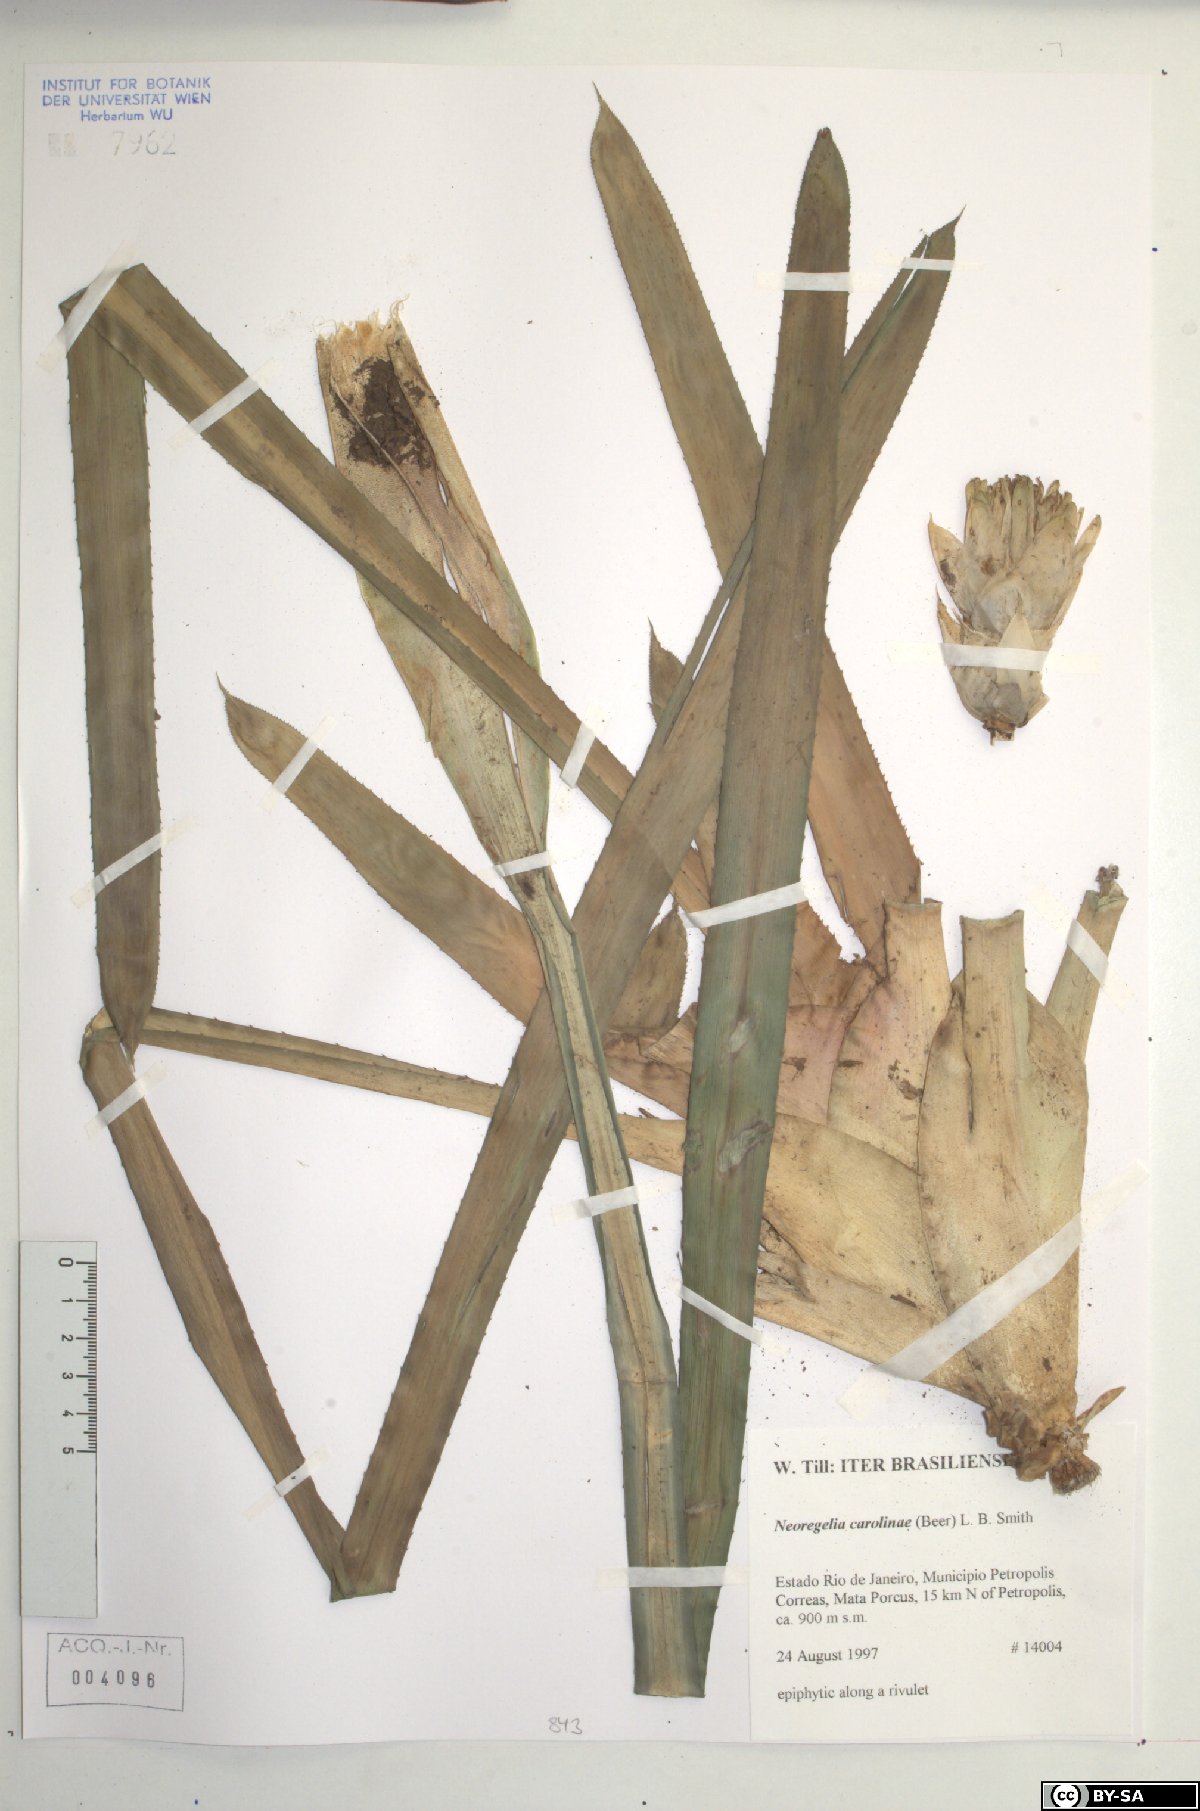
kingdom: Plantae
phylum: Tracheophyta
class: Liliopsida
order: Poales
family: Bromeliaceae
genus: Neoregelia
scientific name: Neoregelia carolinae
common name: Blushing bromeliad
